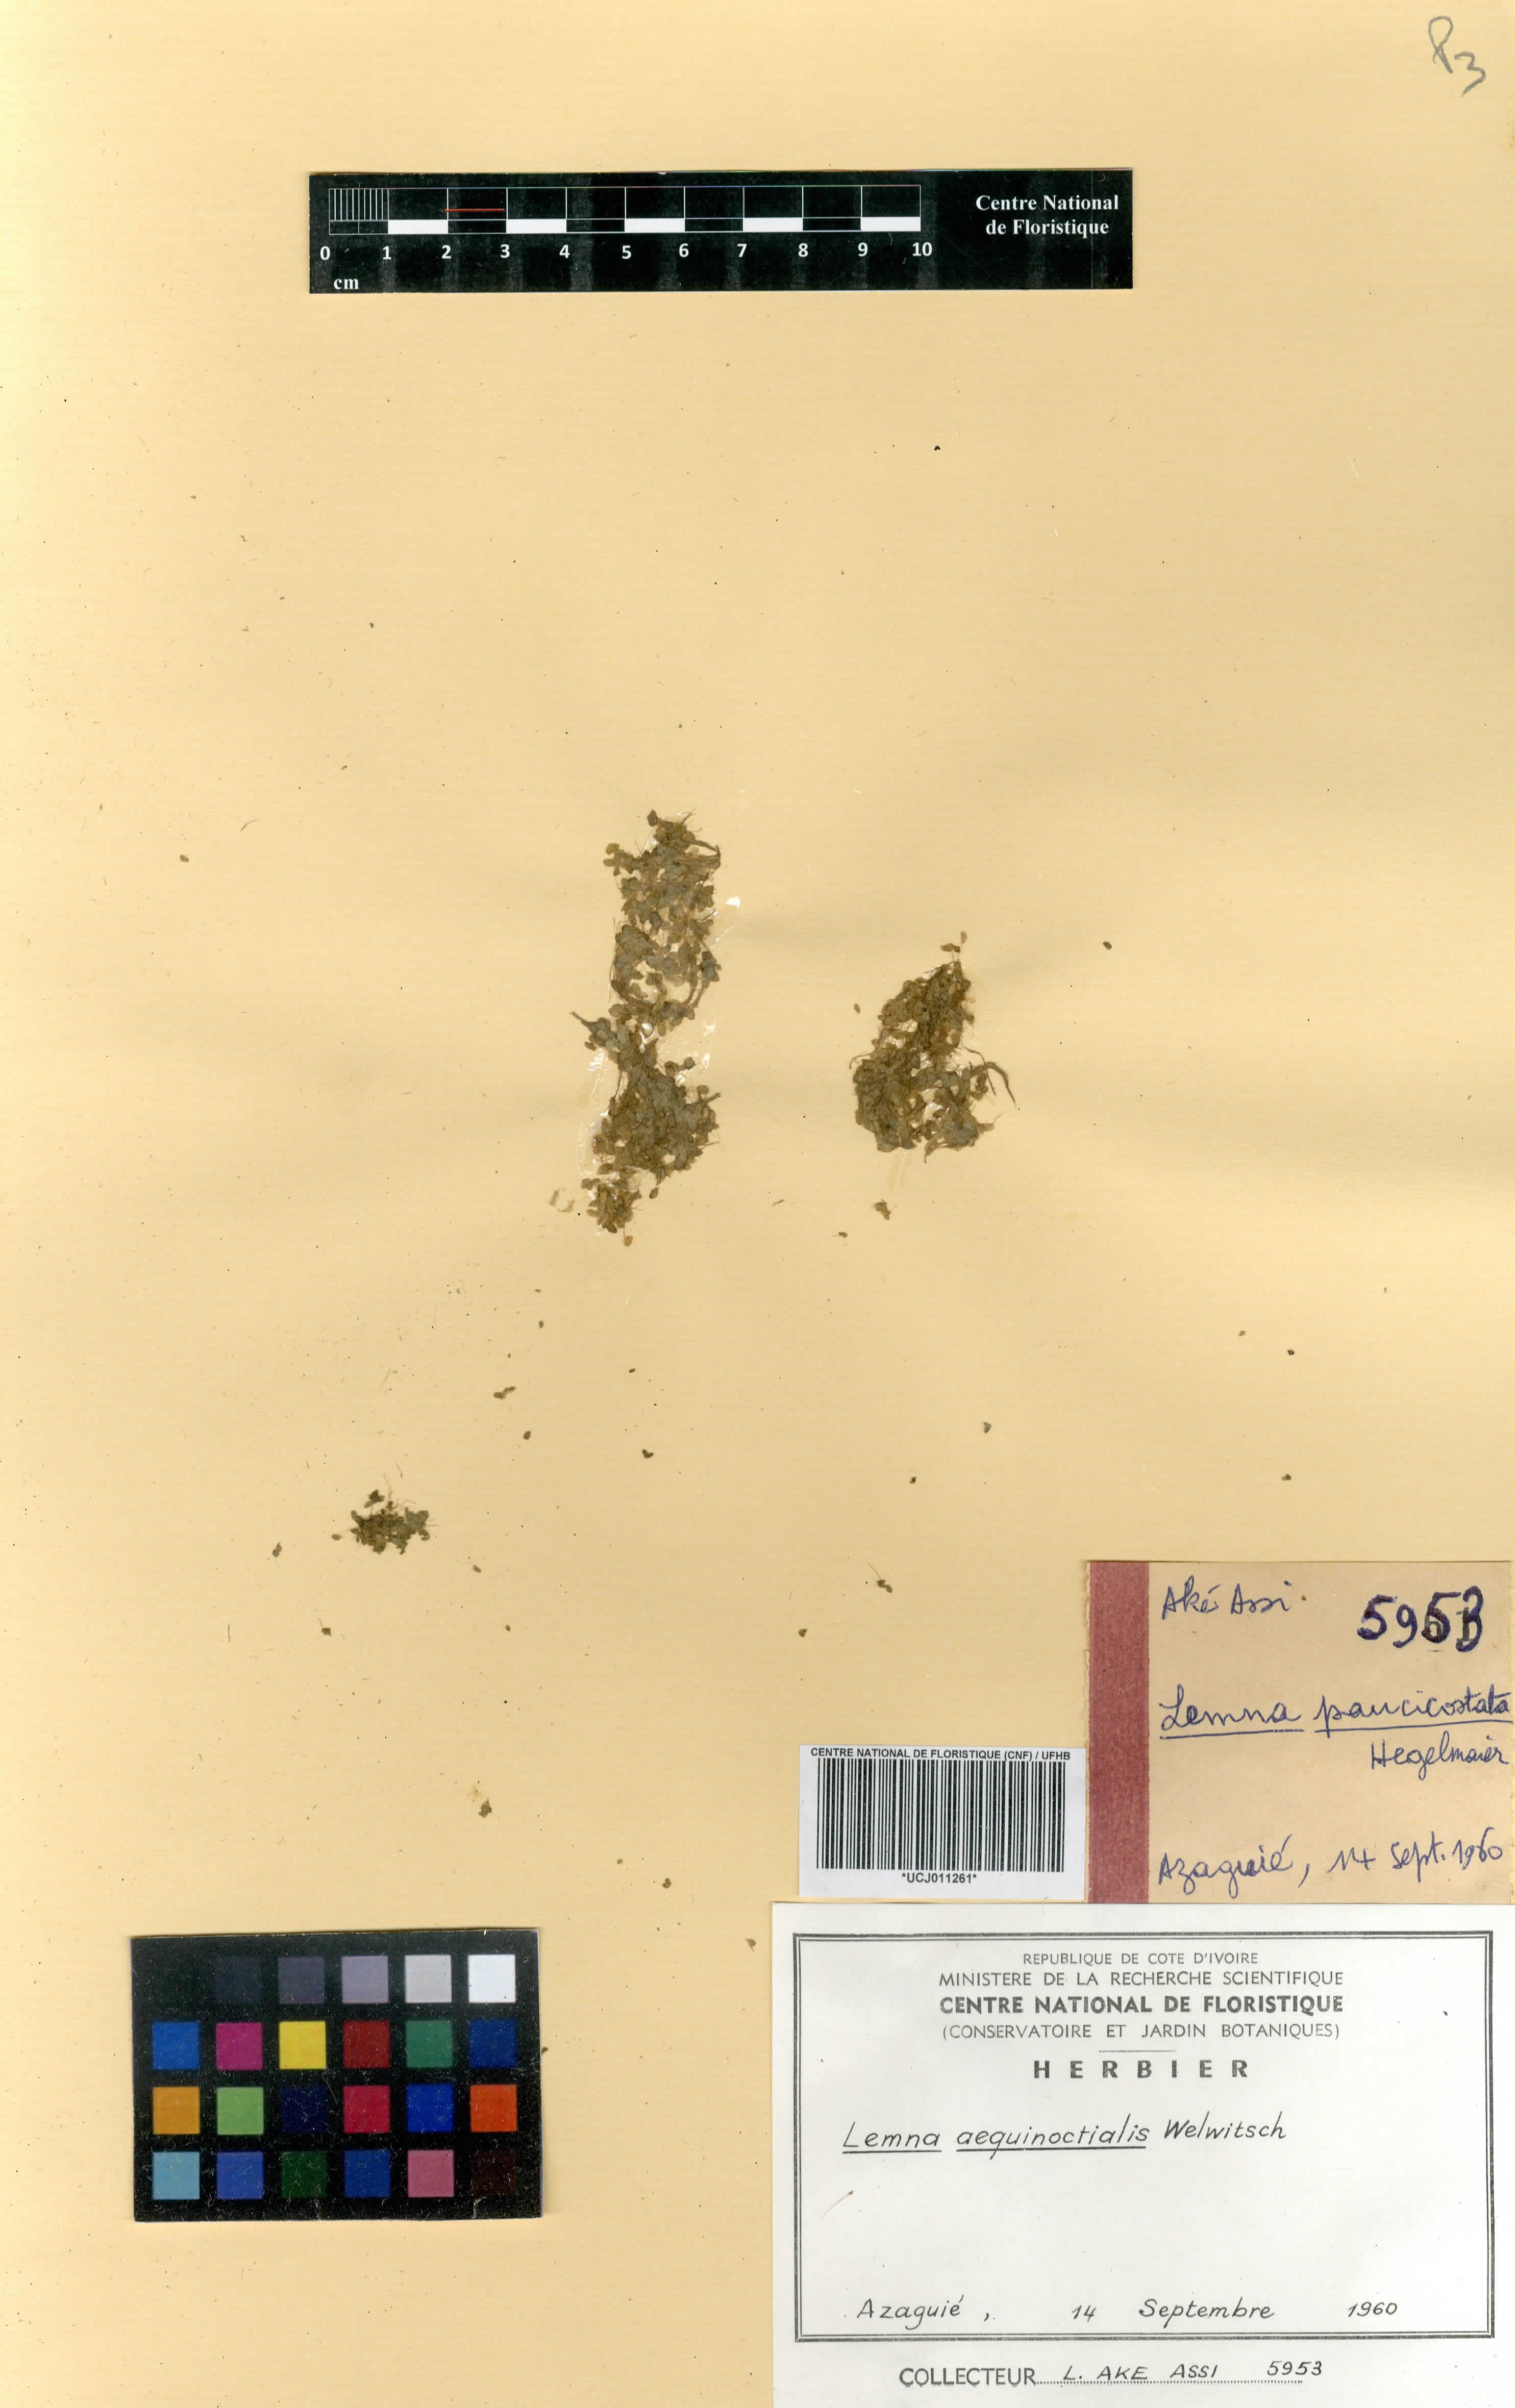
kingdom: Plantae
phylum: Tracheophyta
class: Liliopsida
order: Alismatales
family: Araceae
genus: Lemna
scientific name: Lemna aequinoctialis
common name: Duckweed
